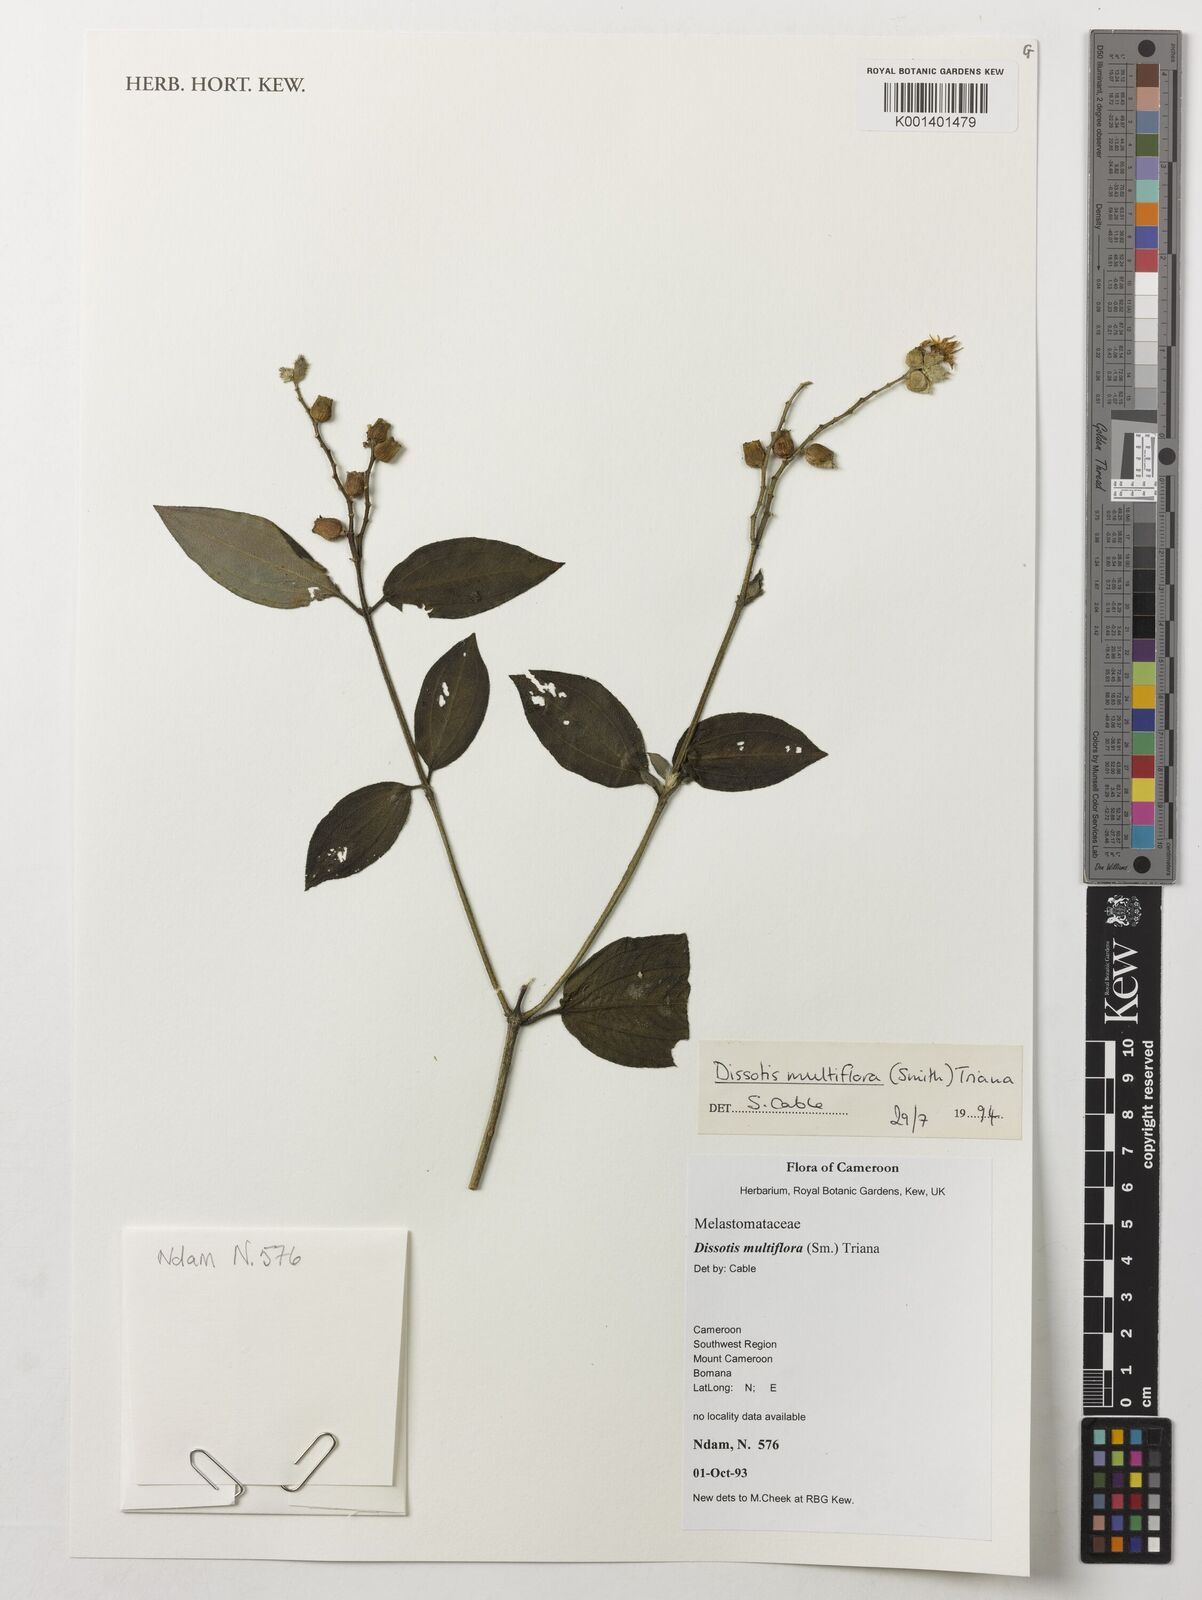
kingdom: Plantae
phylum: Tracheophyta
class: Magnoliopsida
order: Myrtales
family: Melastomataceae
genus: Dupineta
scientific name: Dupineta multiflora
